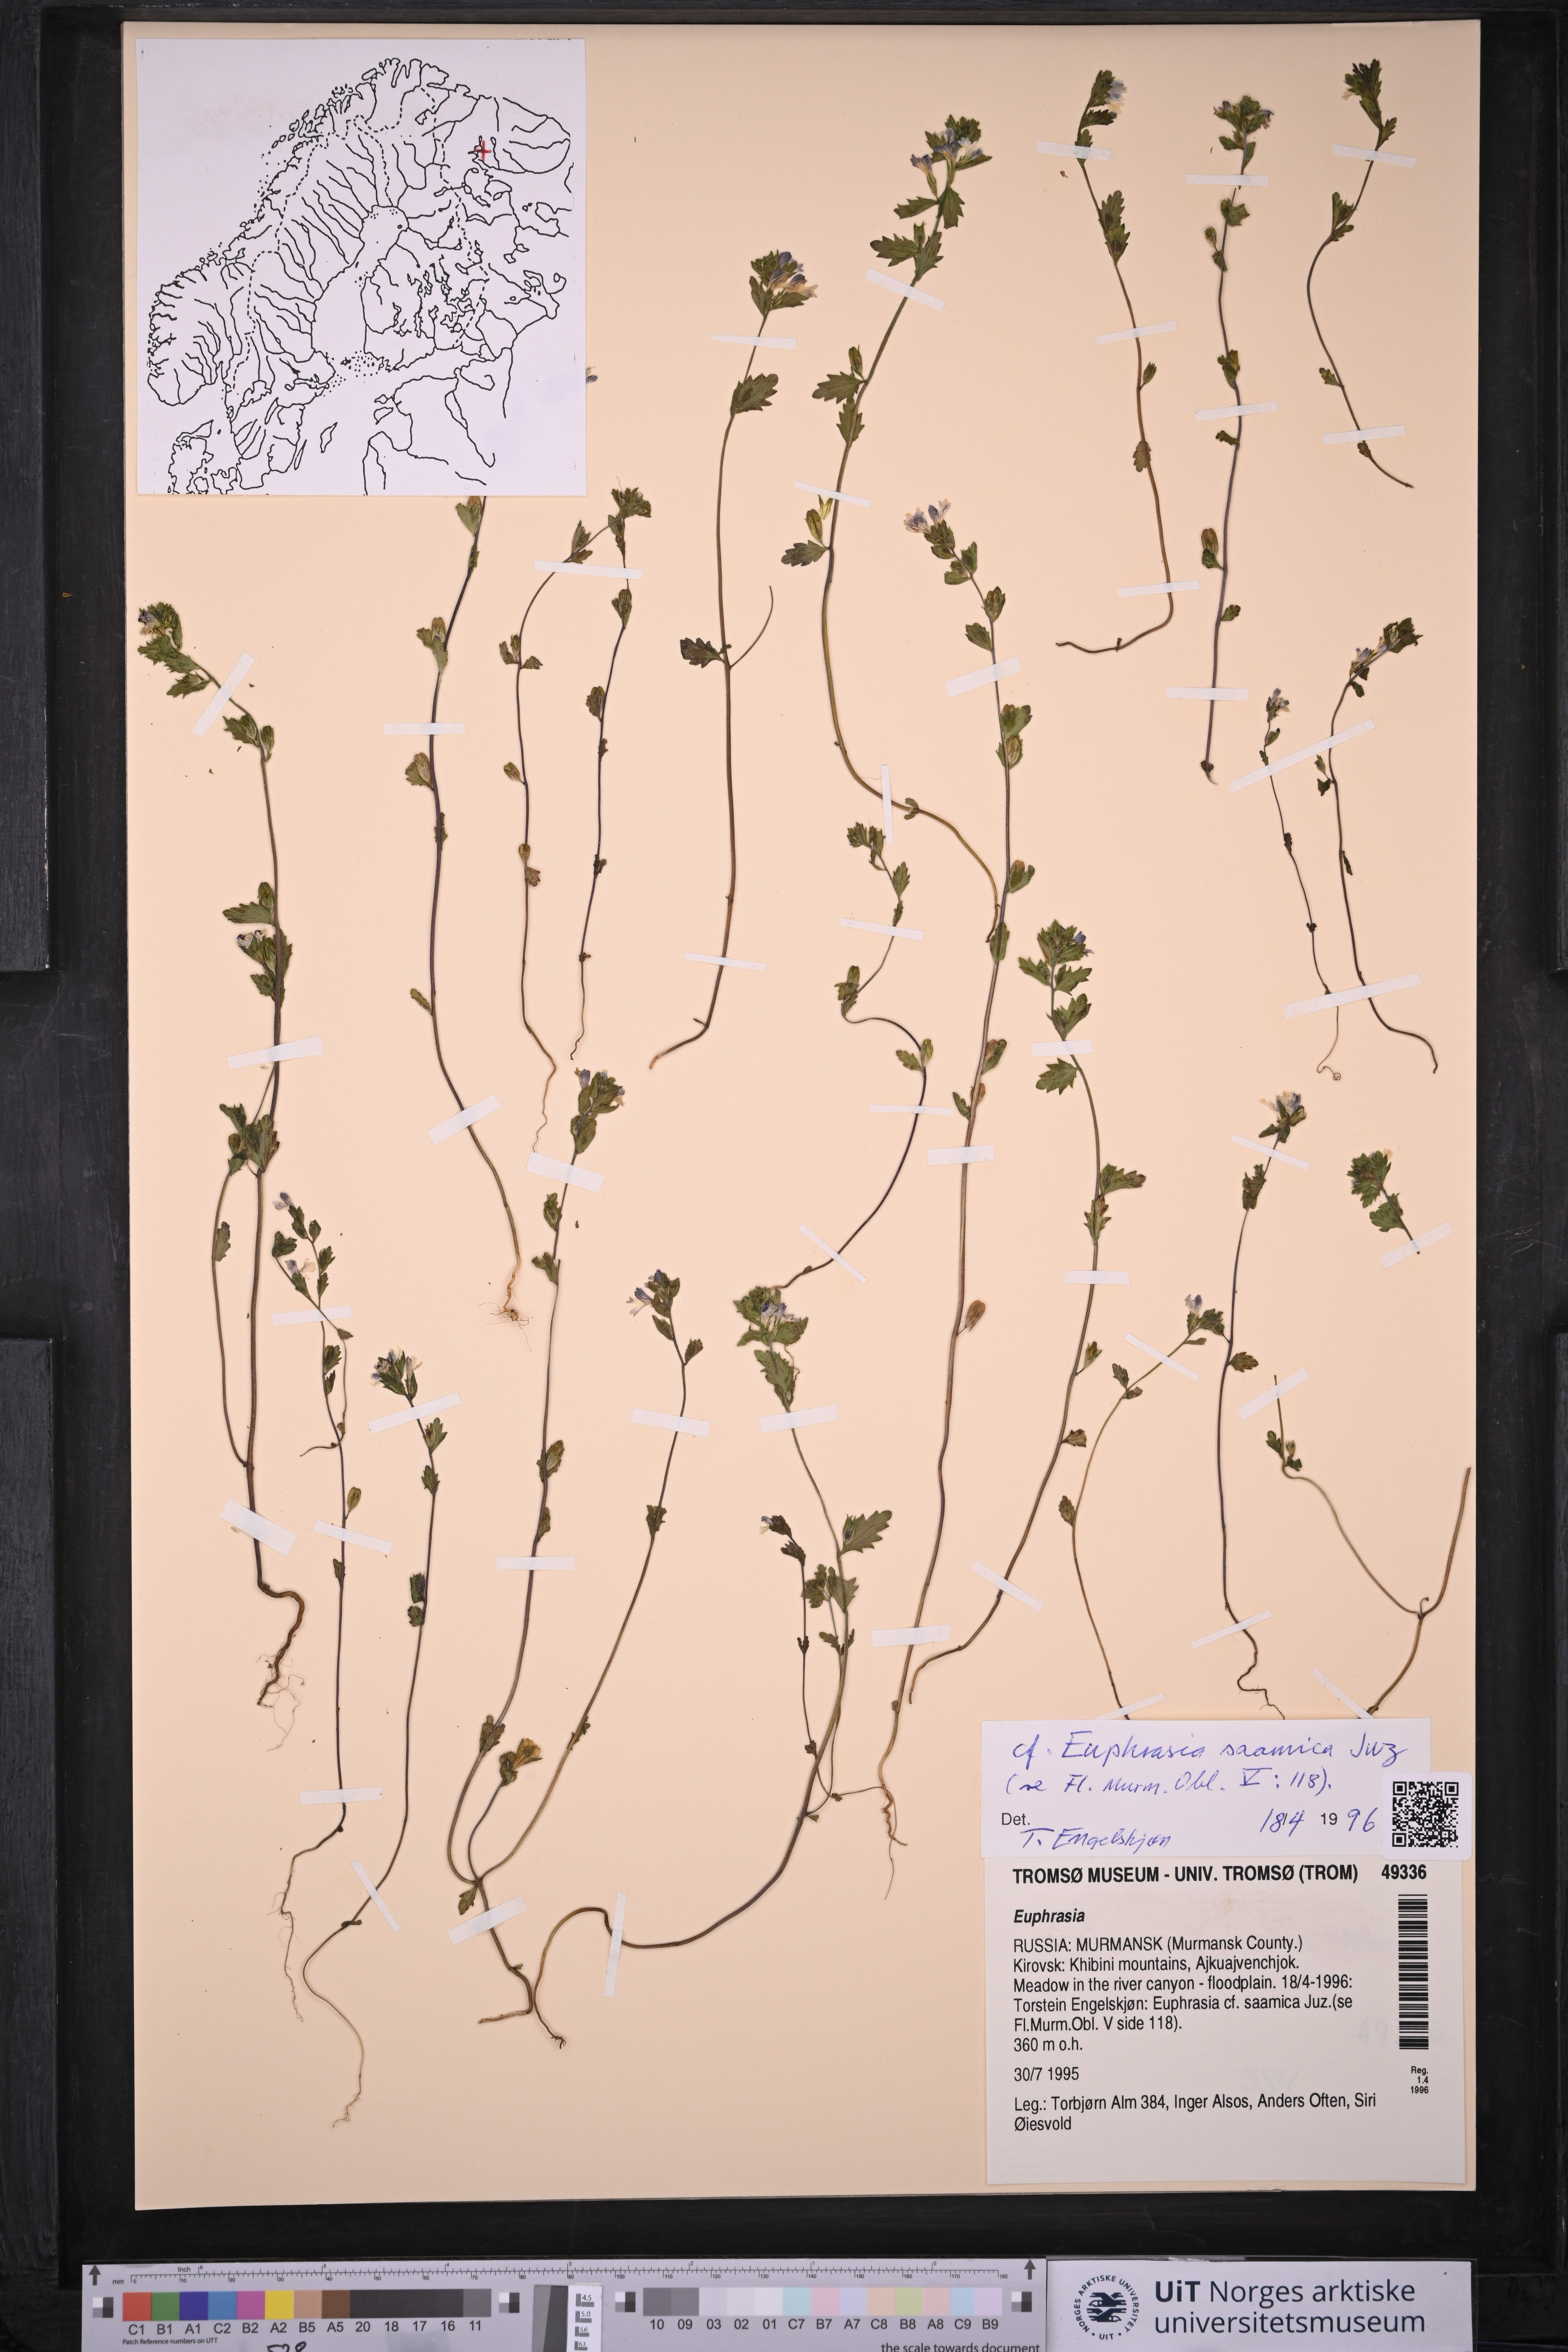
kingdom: Plantae
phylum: Tracheophyta
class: Magnoliopsida
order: Lamiales
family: Orobanchaceae
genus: Euphrasia
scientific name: Euphrasia
